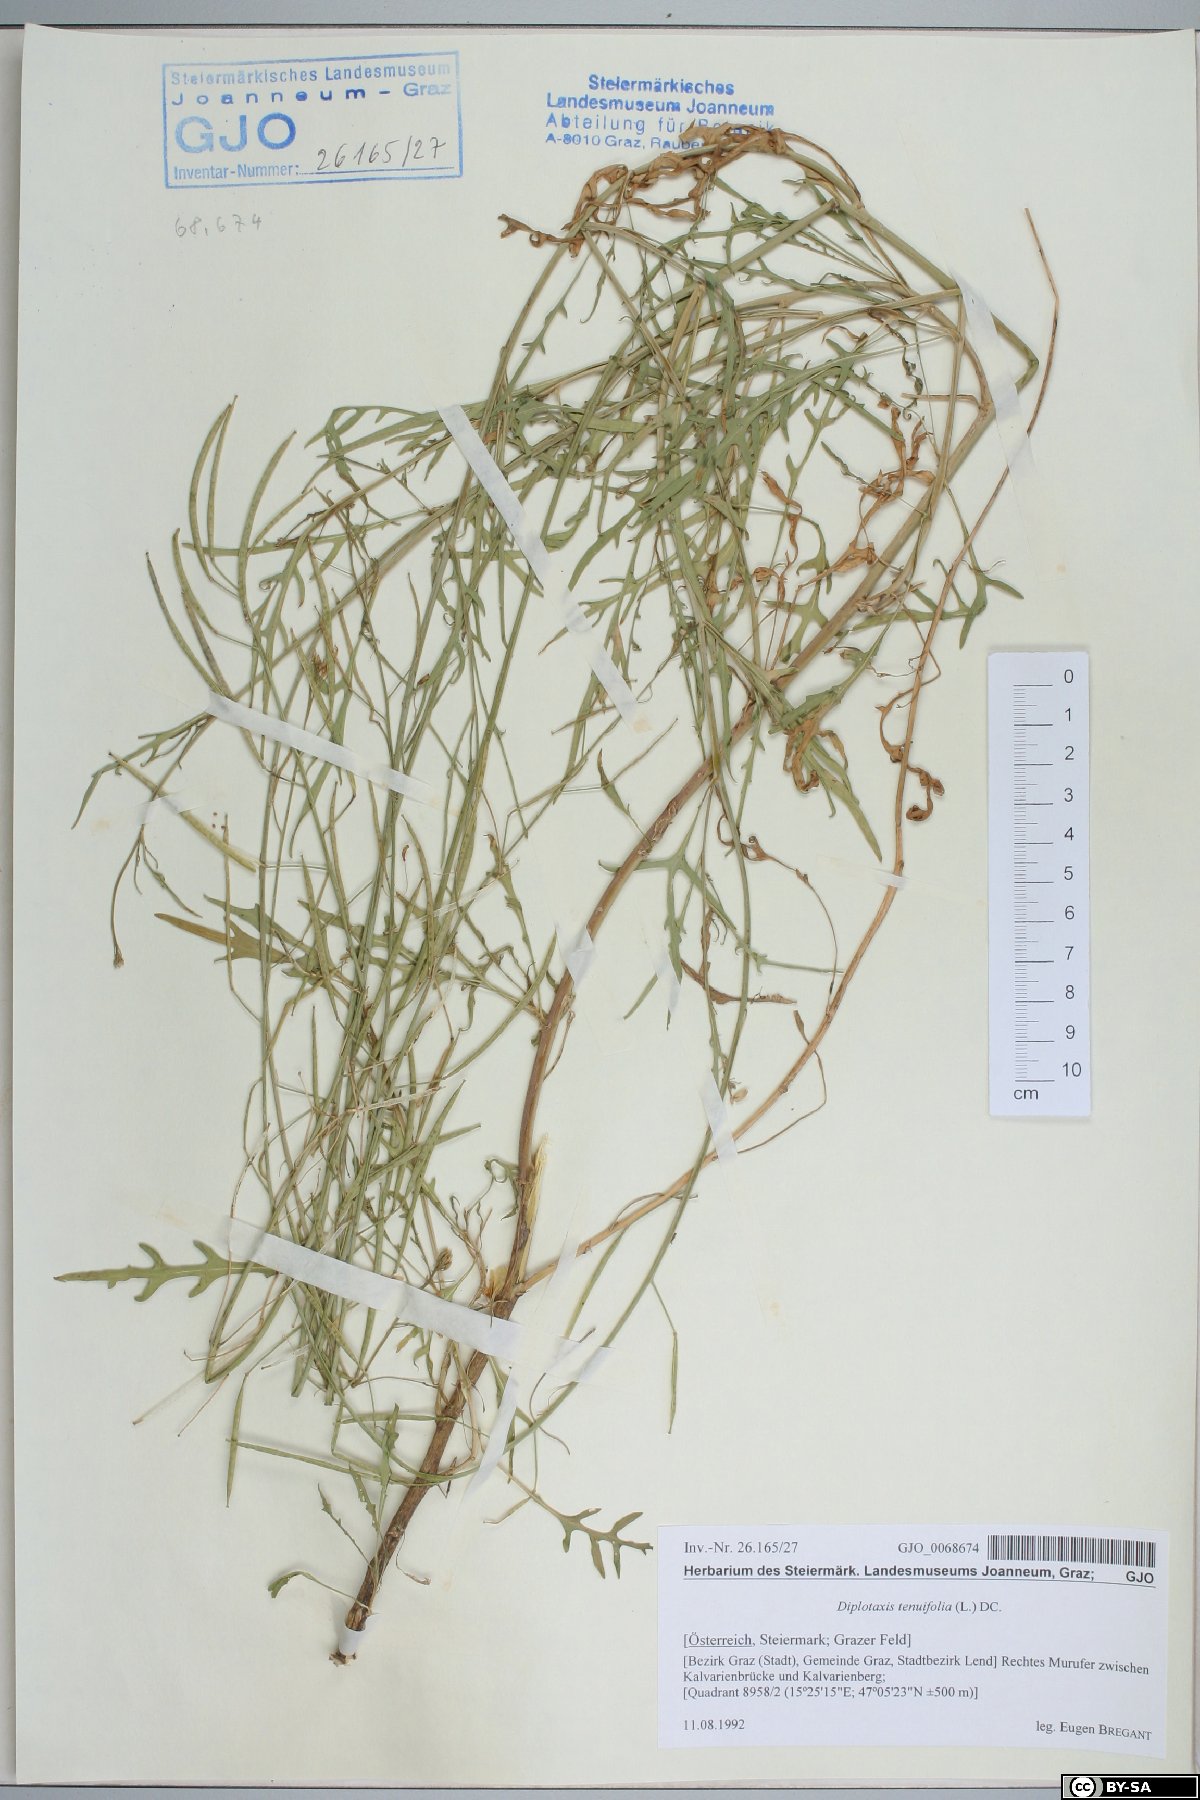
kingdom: Plantae
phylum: Tracheophyta
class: Magnoliopsida
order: Brassicales
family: Brassicaceae
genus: Diplotaxis
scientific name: Diplotaxis tenuifolia
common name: Perennial wall-rocket
